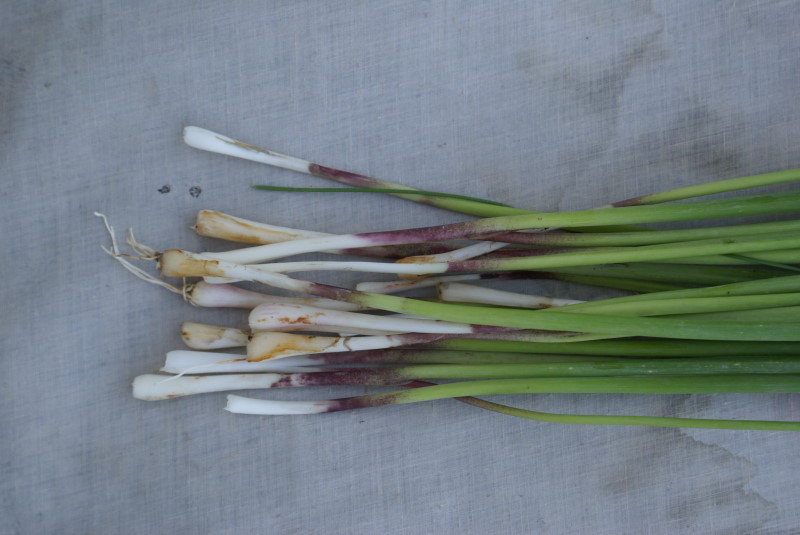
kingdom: Plantae
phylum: Tracheophyta
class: Liliopsida
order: Asparagales
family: Amaryllidaceae
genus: Allium
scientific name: Allium altyncolicum
